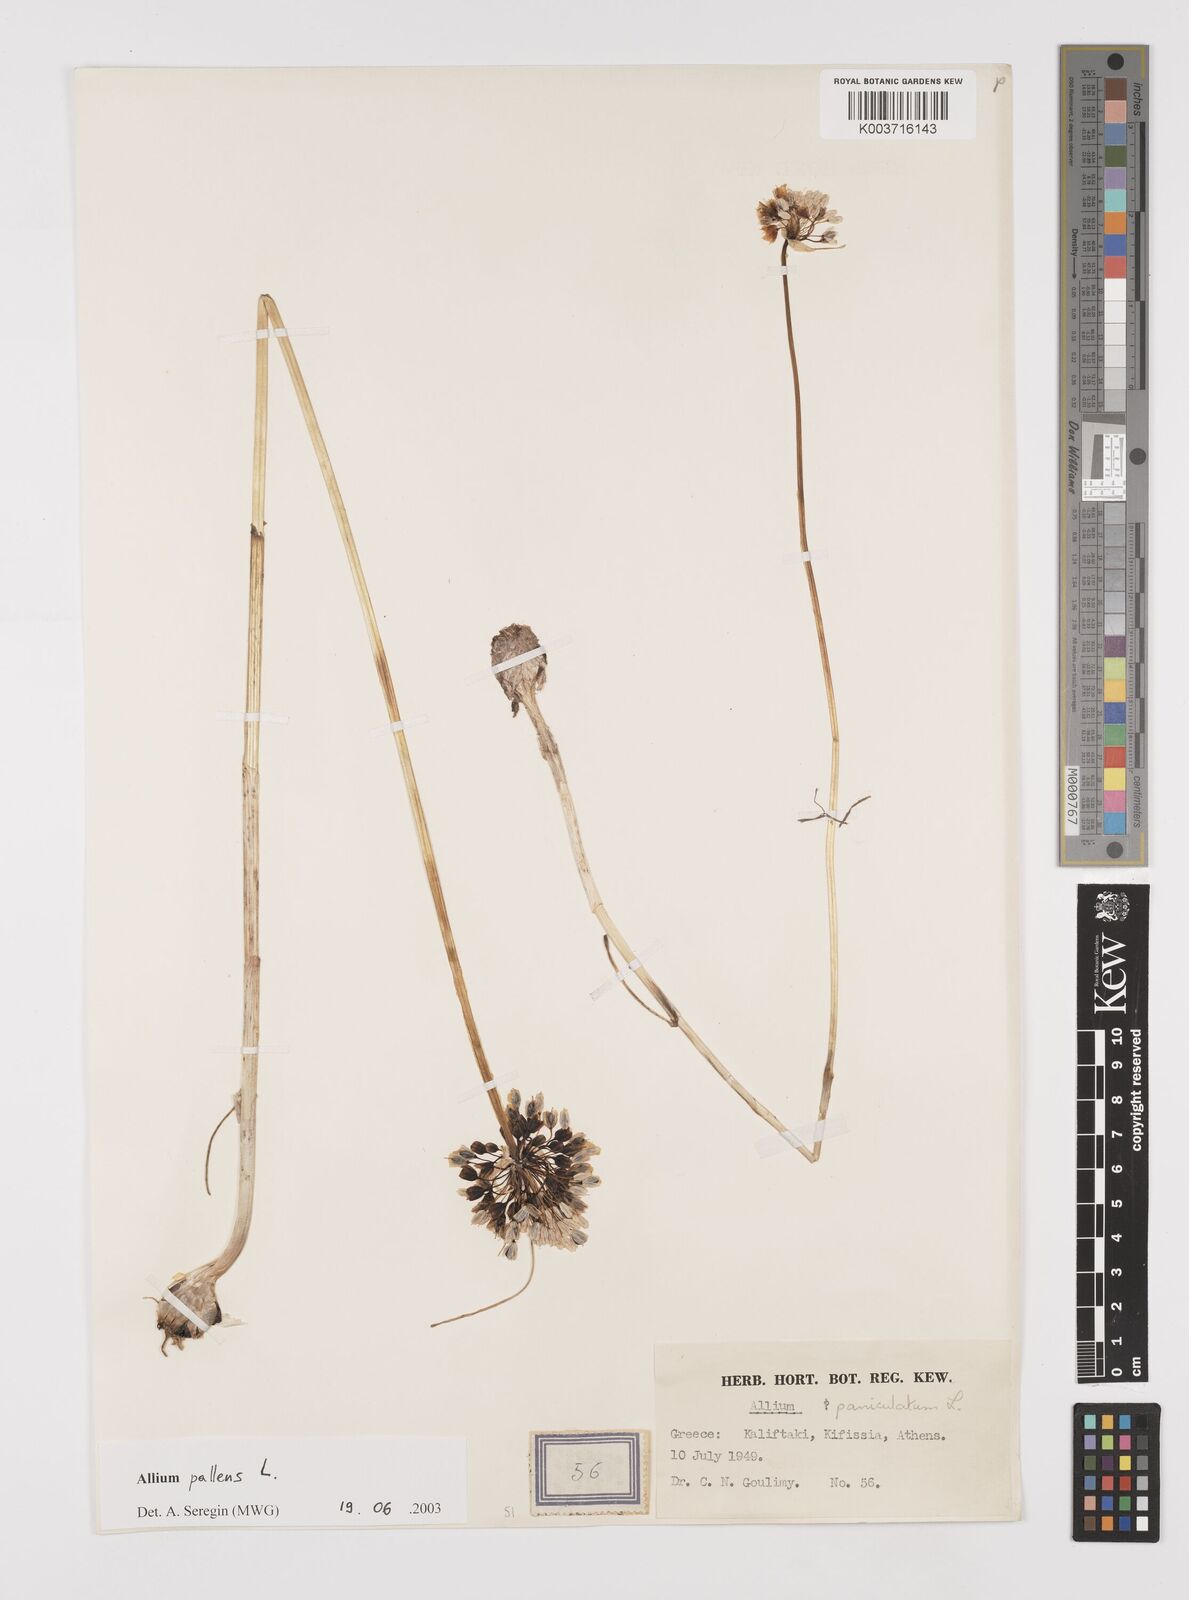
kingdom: Plantae
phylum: Tracheophyta
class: Liliopsida
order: Asparagales
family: Amaryllidaceae
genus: Allium
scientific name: Allium pallens
